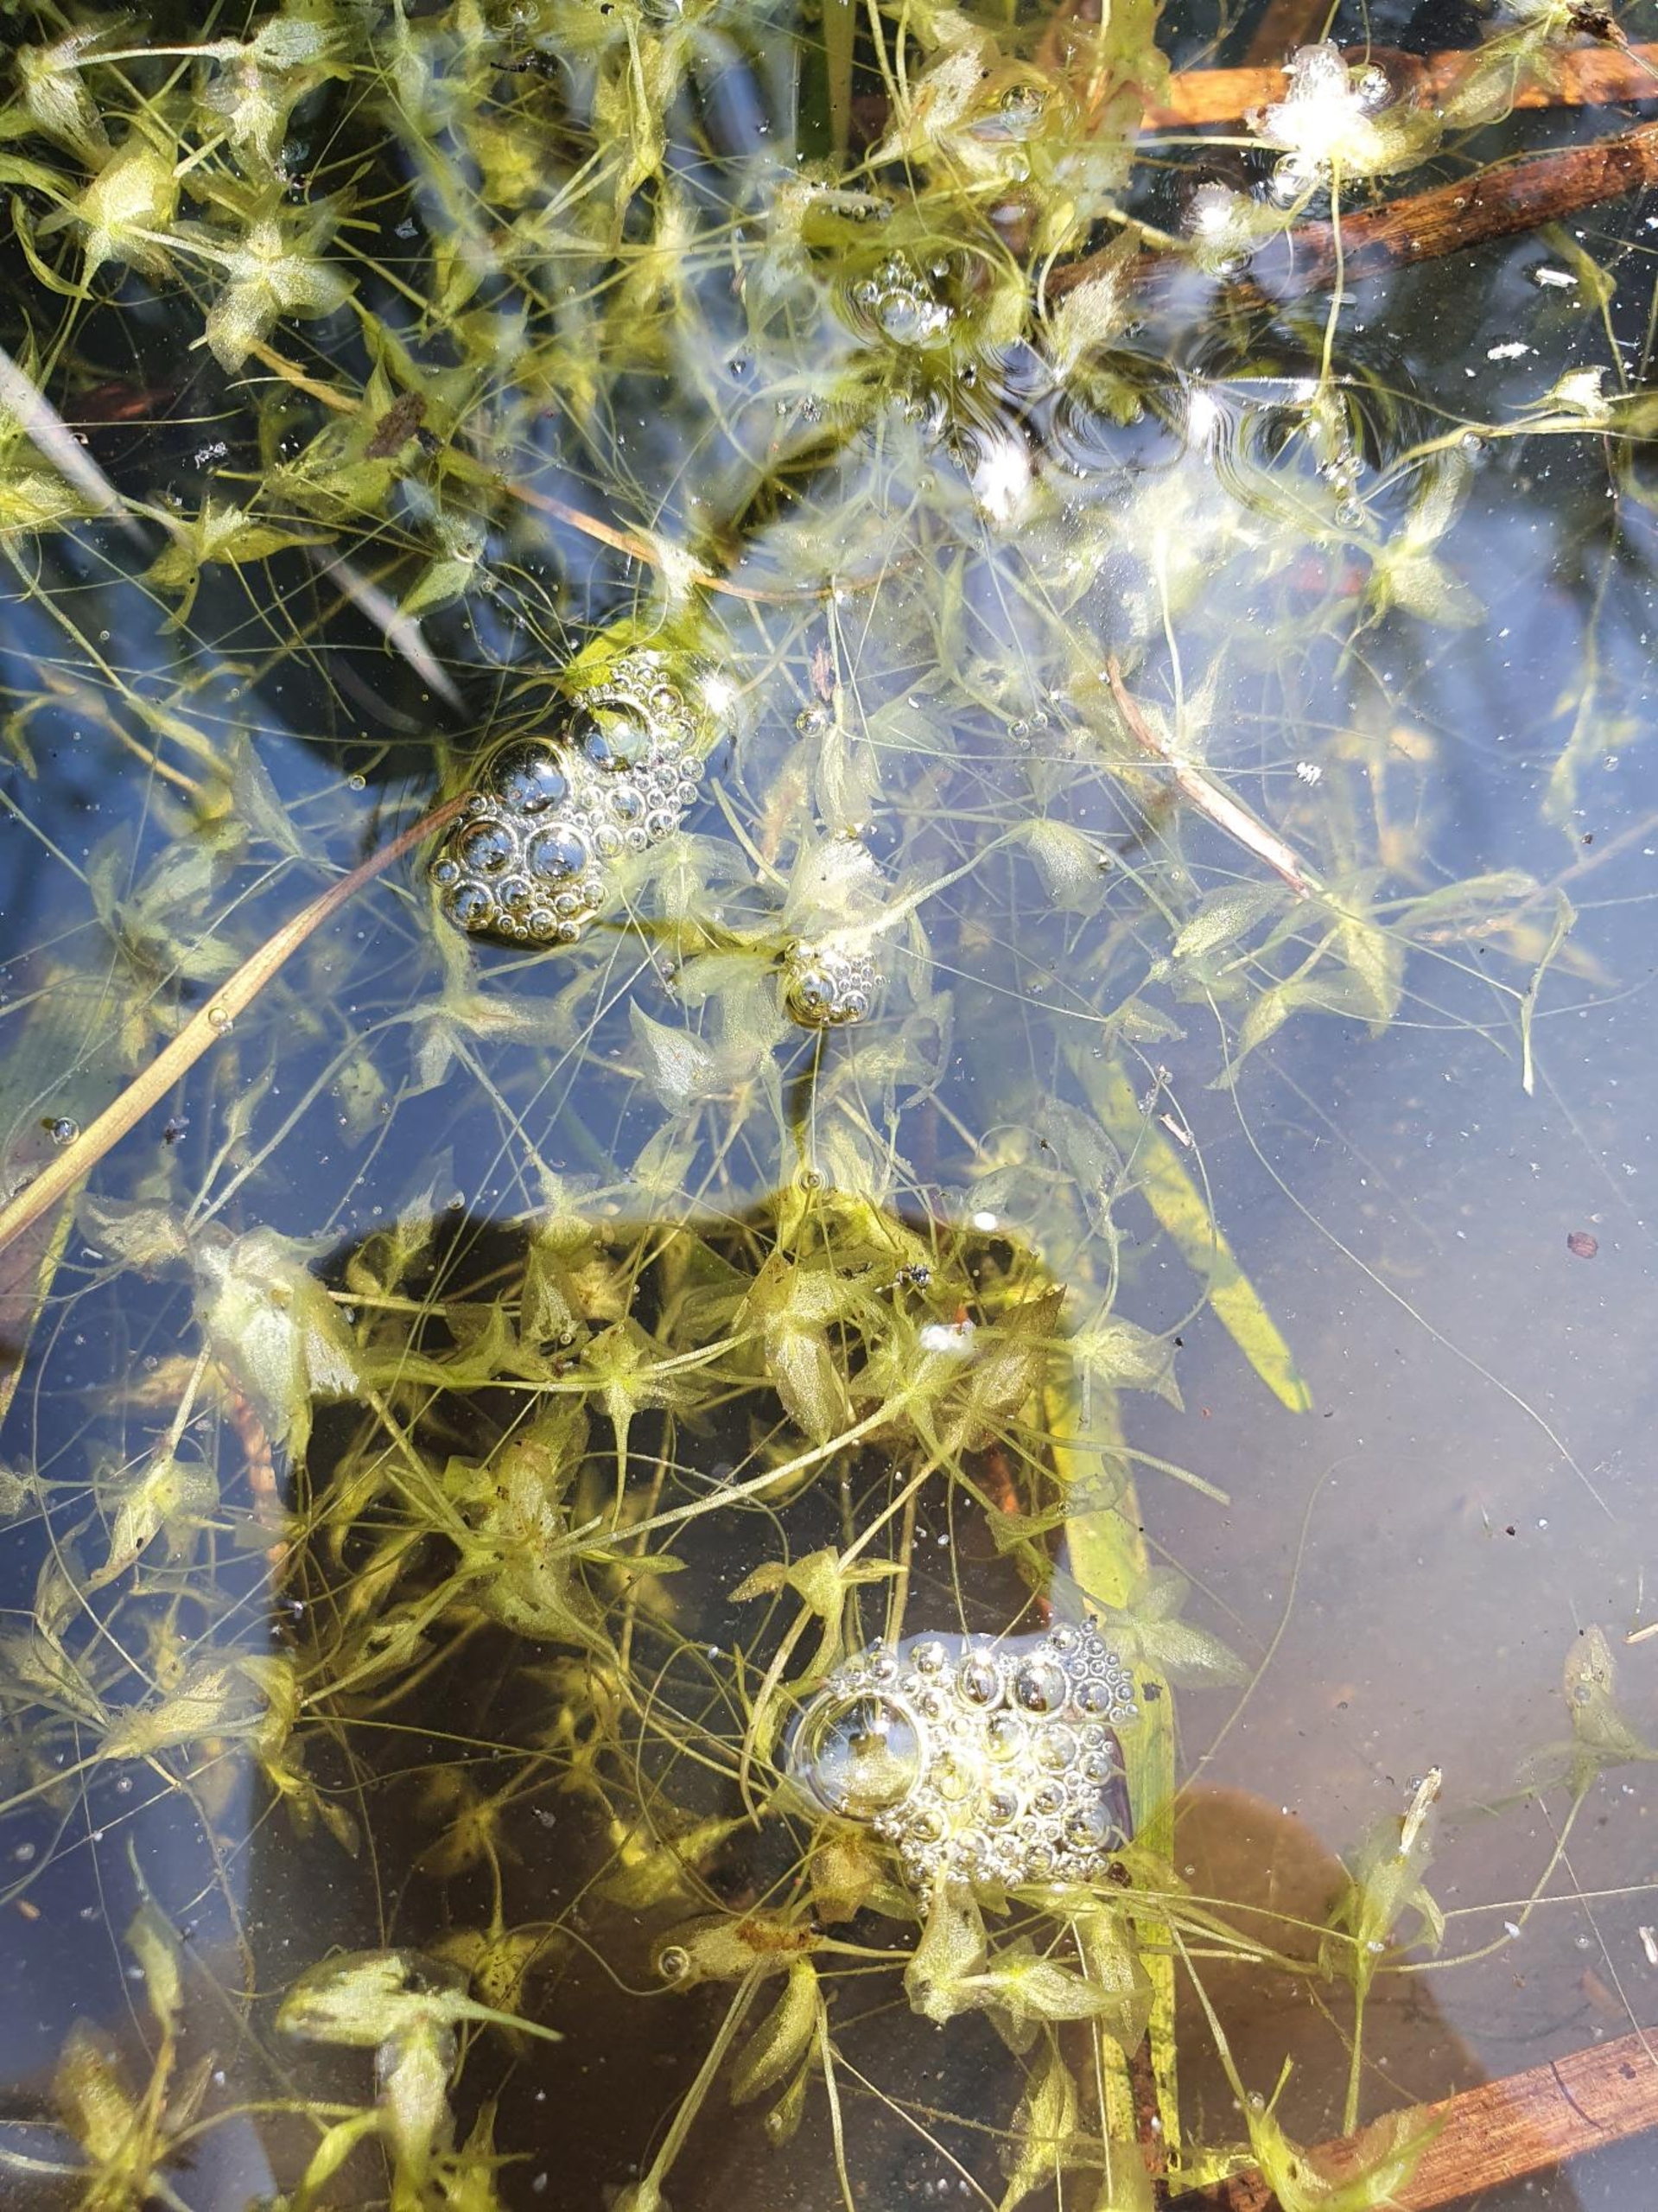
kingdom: Plantae
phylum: Tracheophyta
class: Liliopsida
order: Alismatales
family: Araceae
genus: Lemna
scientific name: Lemna trisulca
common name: Kors-andemad
